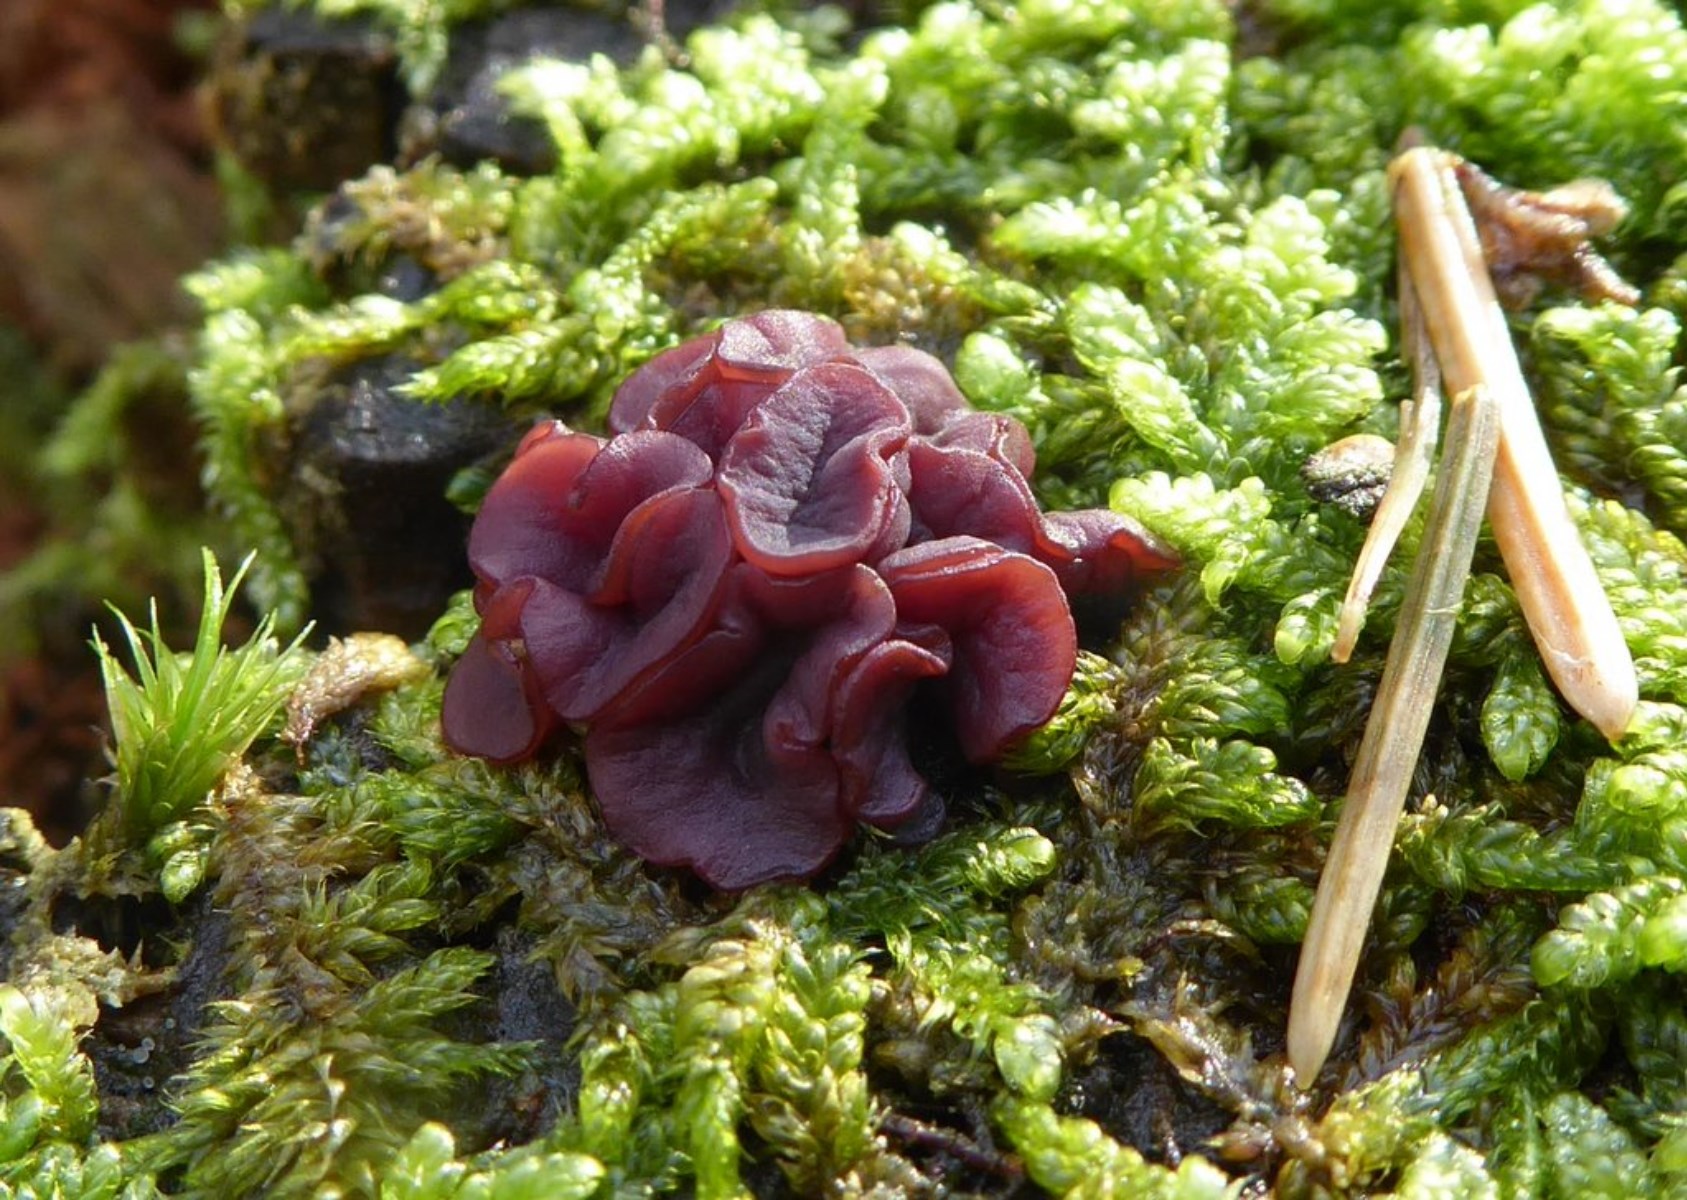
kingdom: Fungi
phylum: Ascomycota
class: Leotiomycetes
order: Helotiales
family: Gelatinodiscaceae
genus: Ascocoryne
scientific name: Ascocoryne cylichnium
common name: stor sejskive
